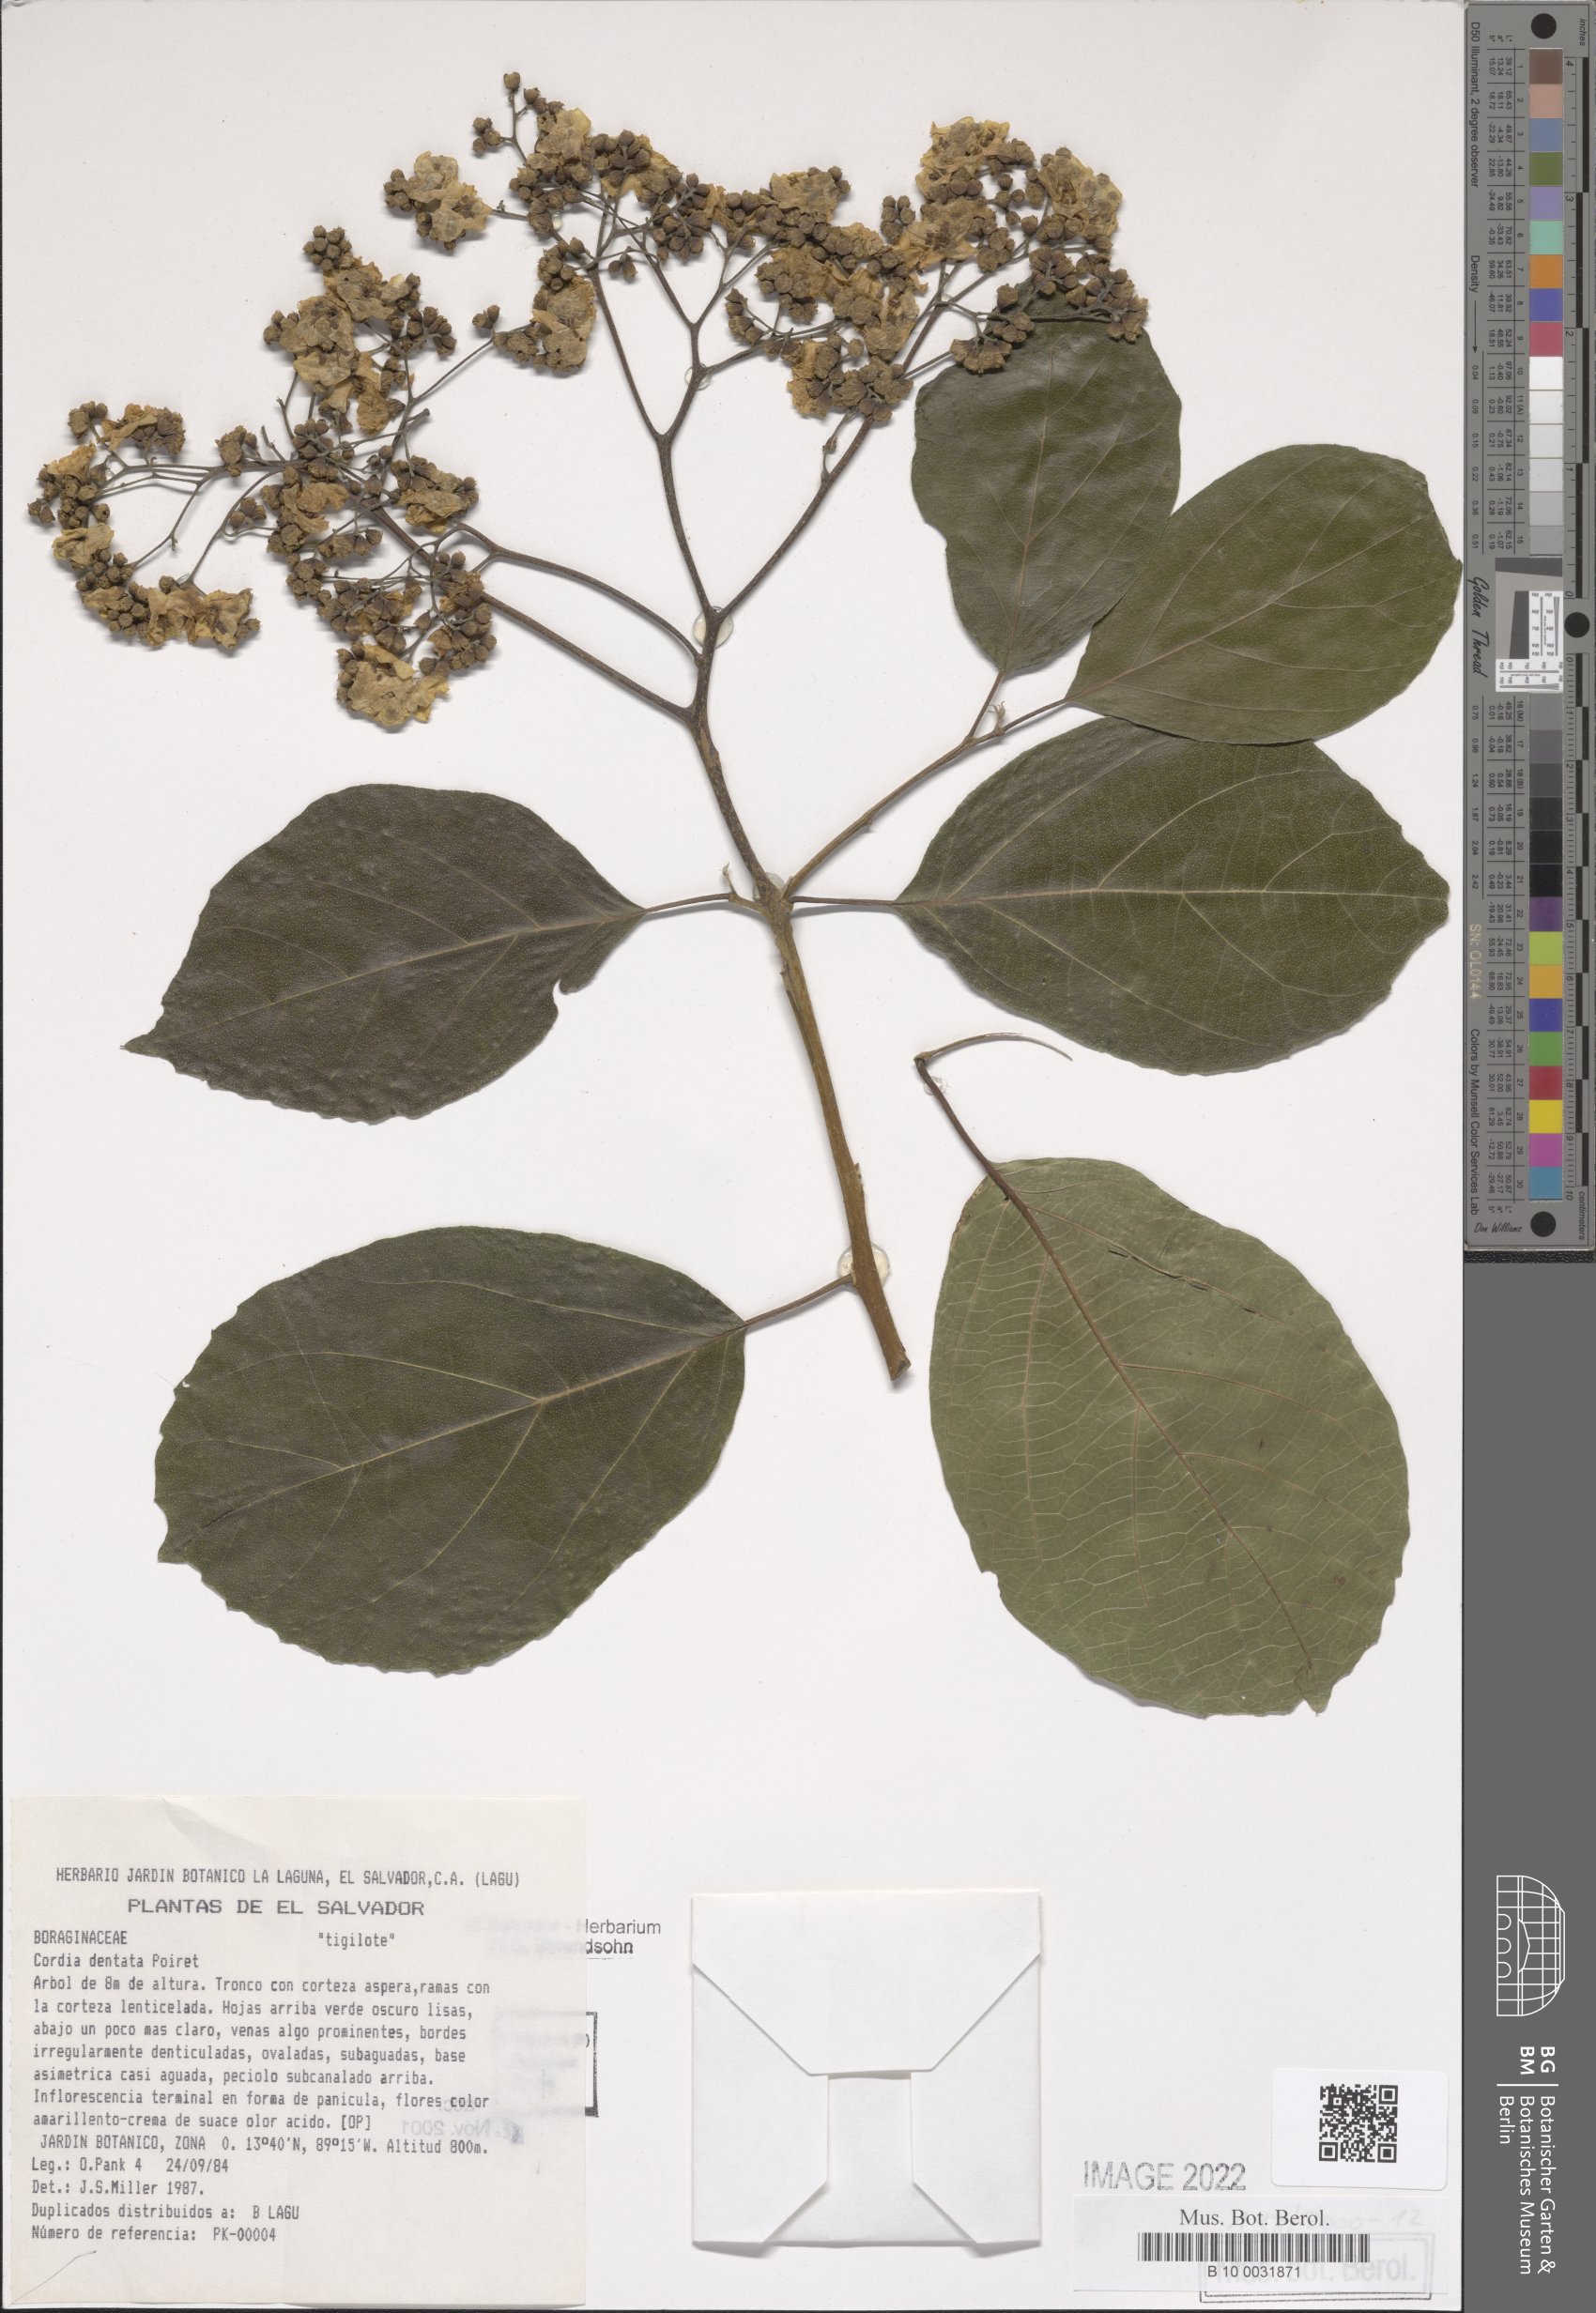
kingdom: Plantae
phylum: Tracheophyta
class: Magnoliopsida
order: Boraginales
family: Cordiaceae
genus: Cordia
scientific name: Cordia dentata
